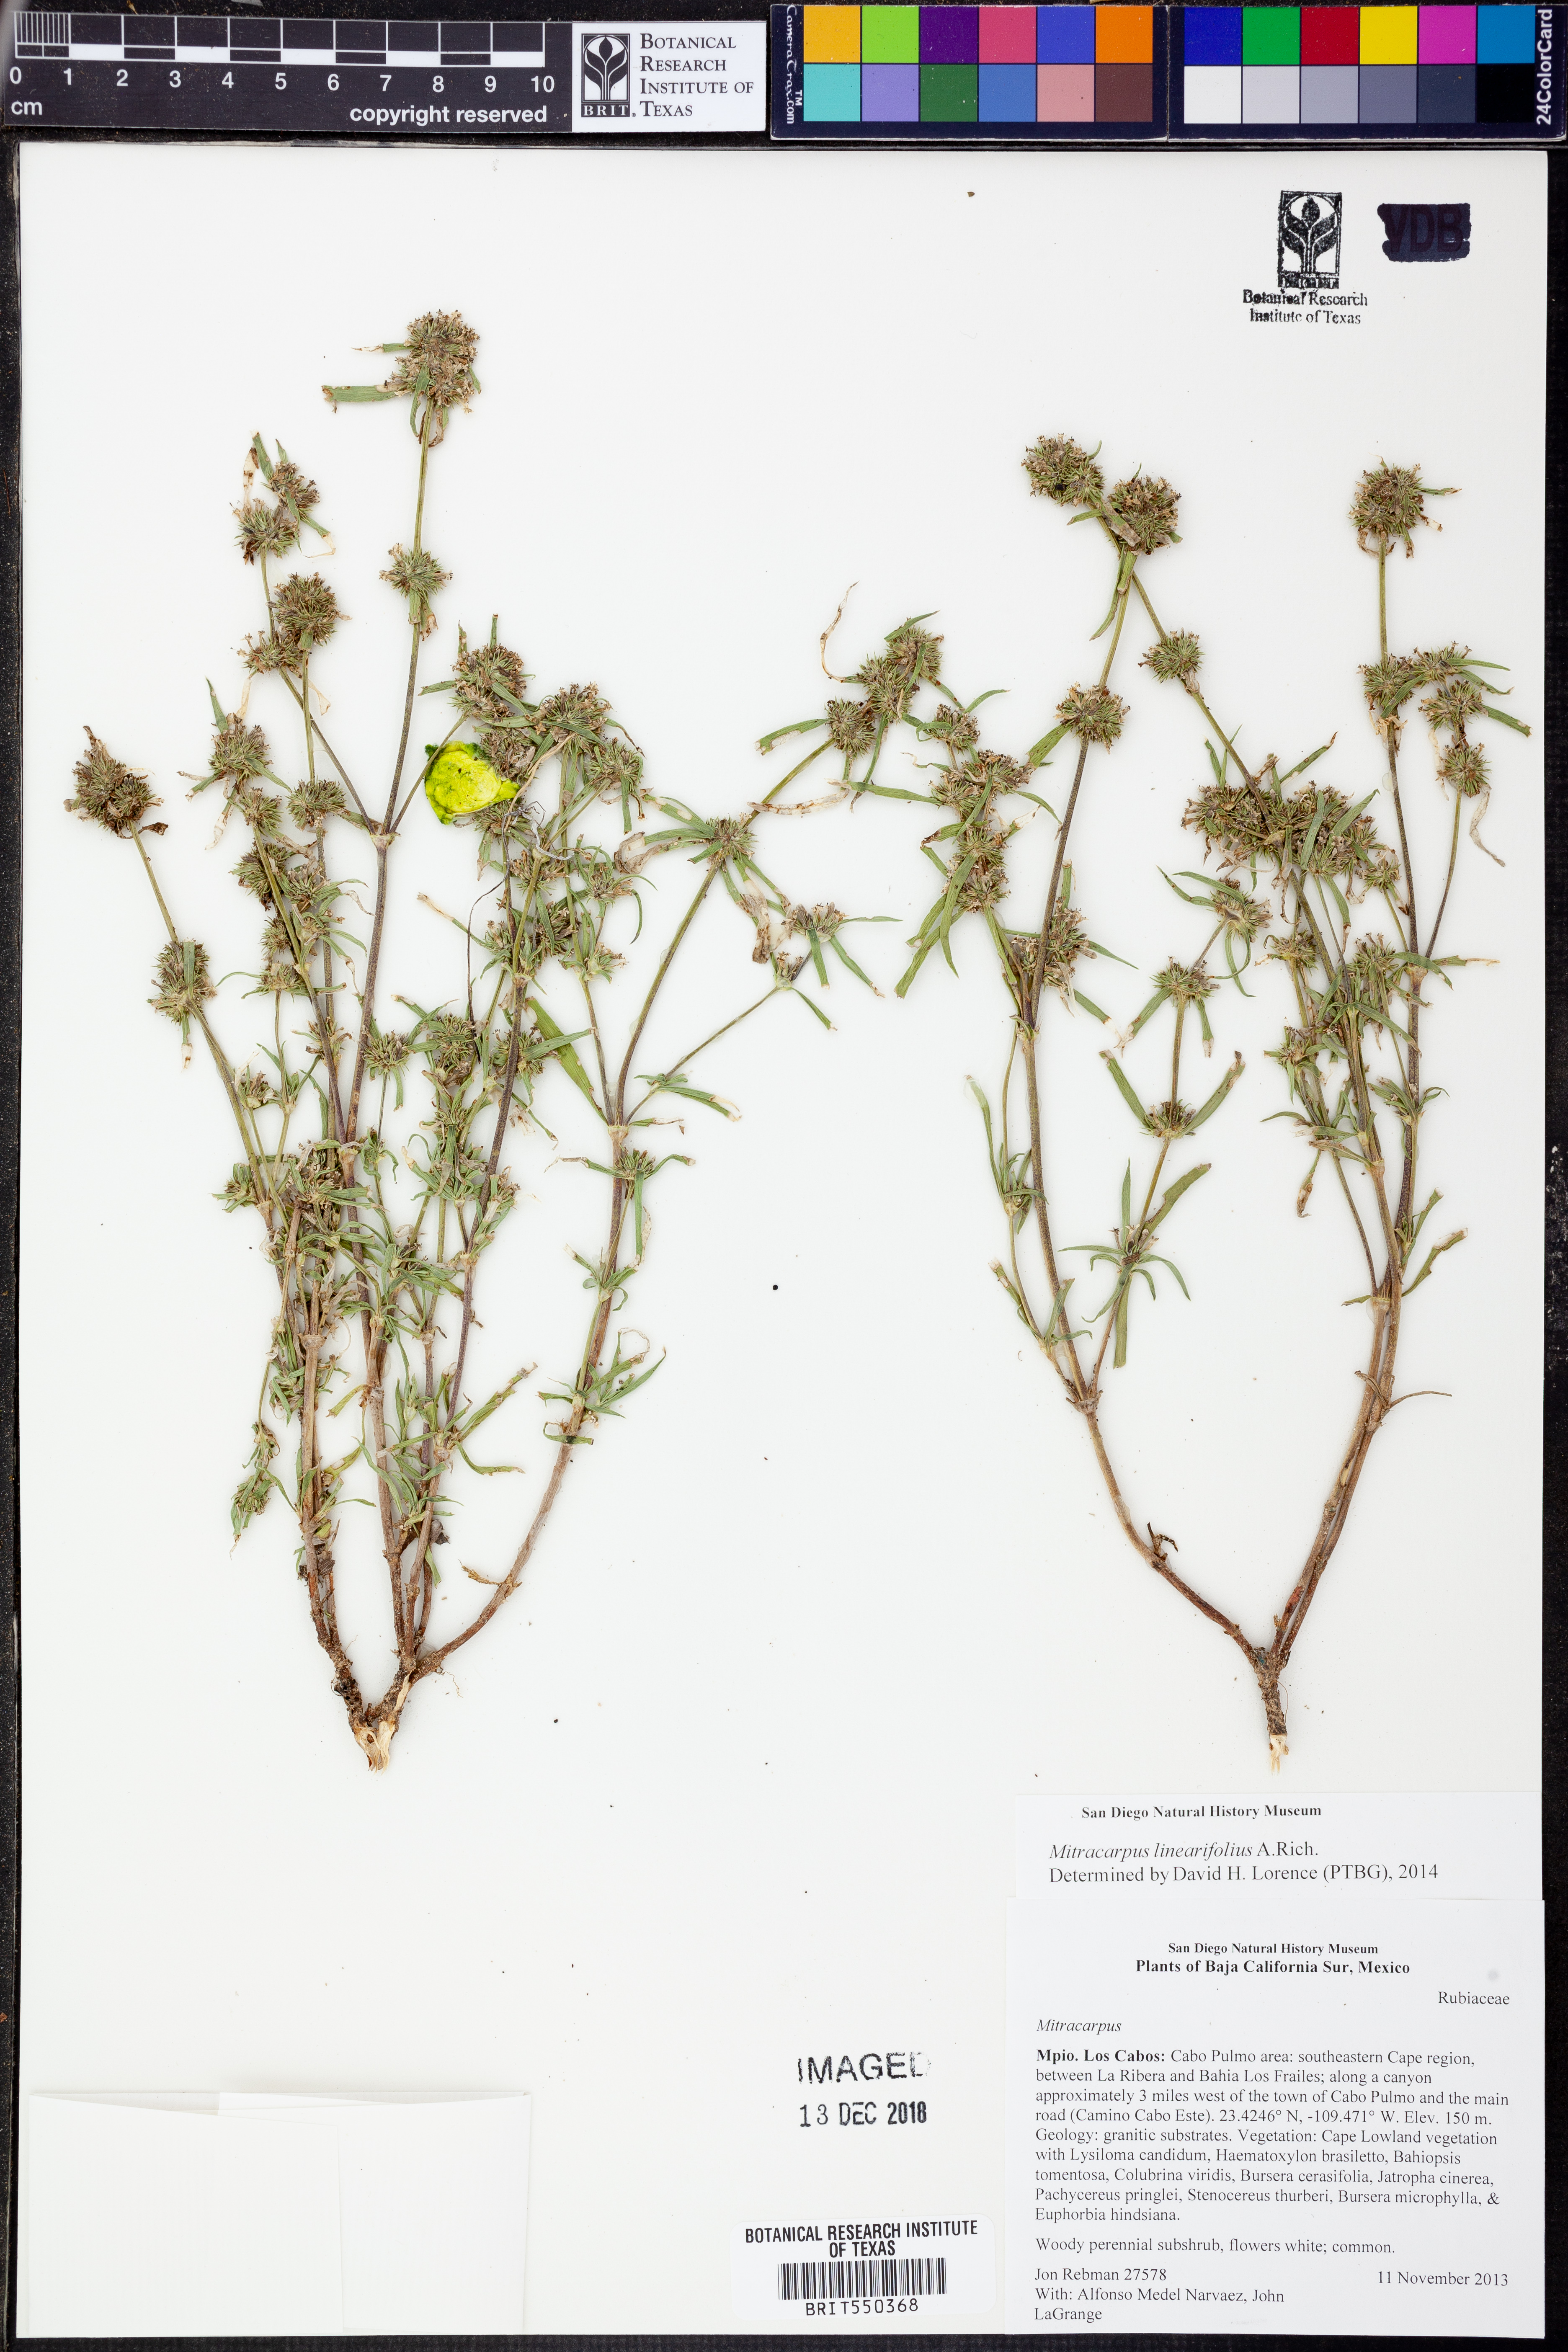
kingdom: Plantae
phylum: Tracheophyta
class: Magnoliopsida
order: Gentianales
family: Rubiaceae
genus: Mitracarpus
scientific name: Mitracarpus linearifolius
